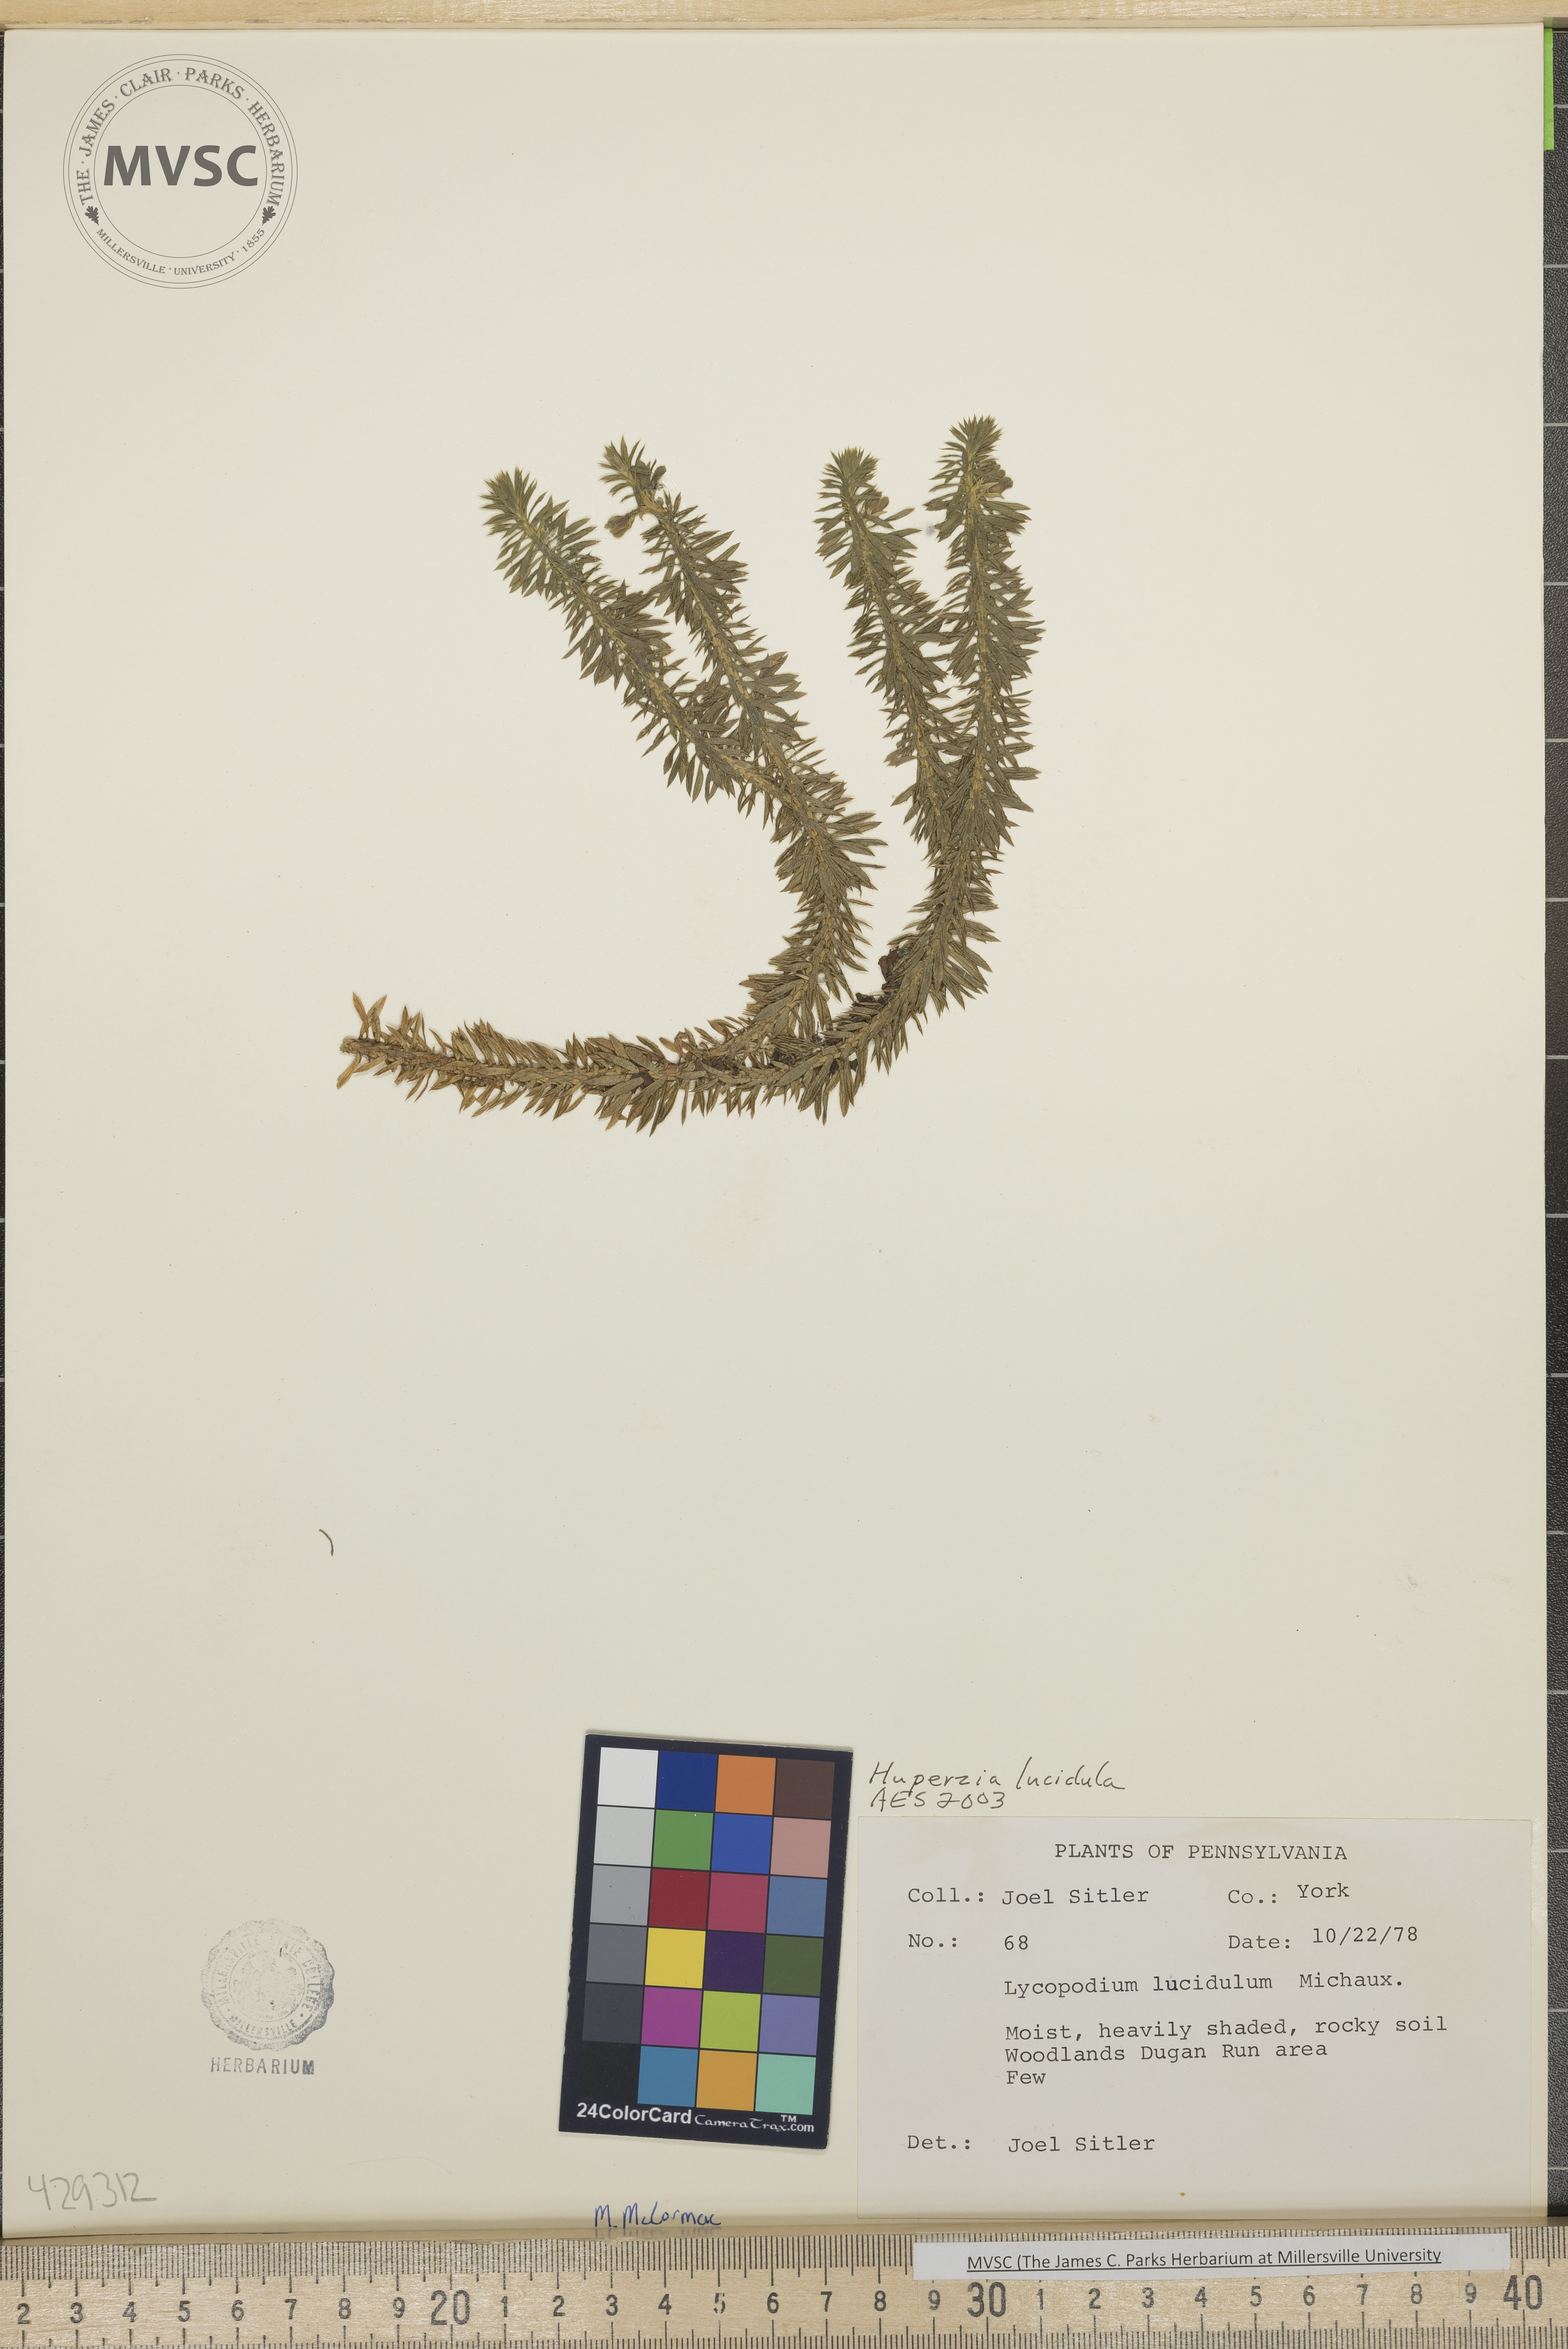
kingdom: Plantae
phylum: Tracheophyta
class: Lycopodiopsida
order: Lycopodiales
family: Lycopodiaceae
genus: Huperzia
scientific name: Huperzia lucidula
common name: Shining clubmoss
